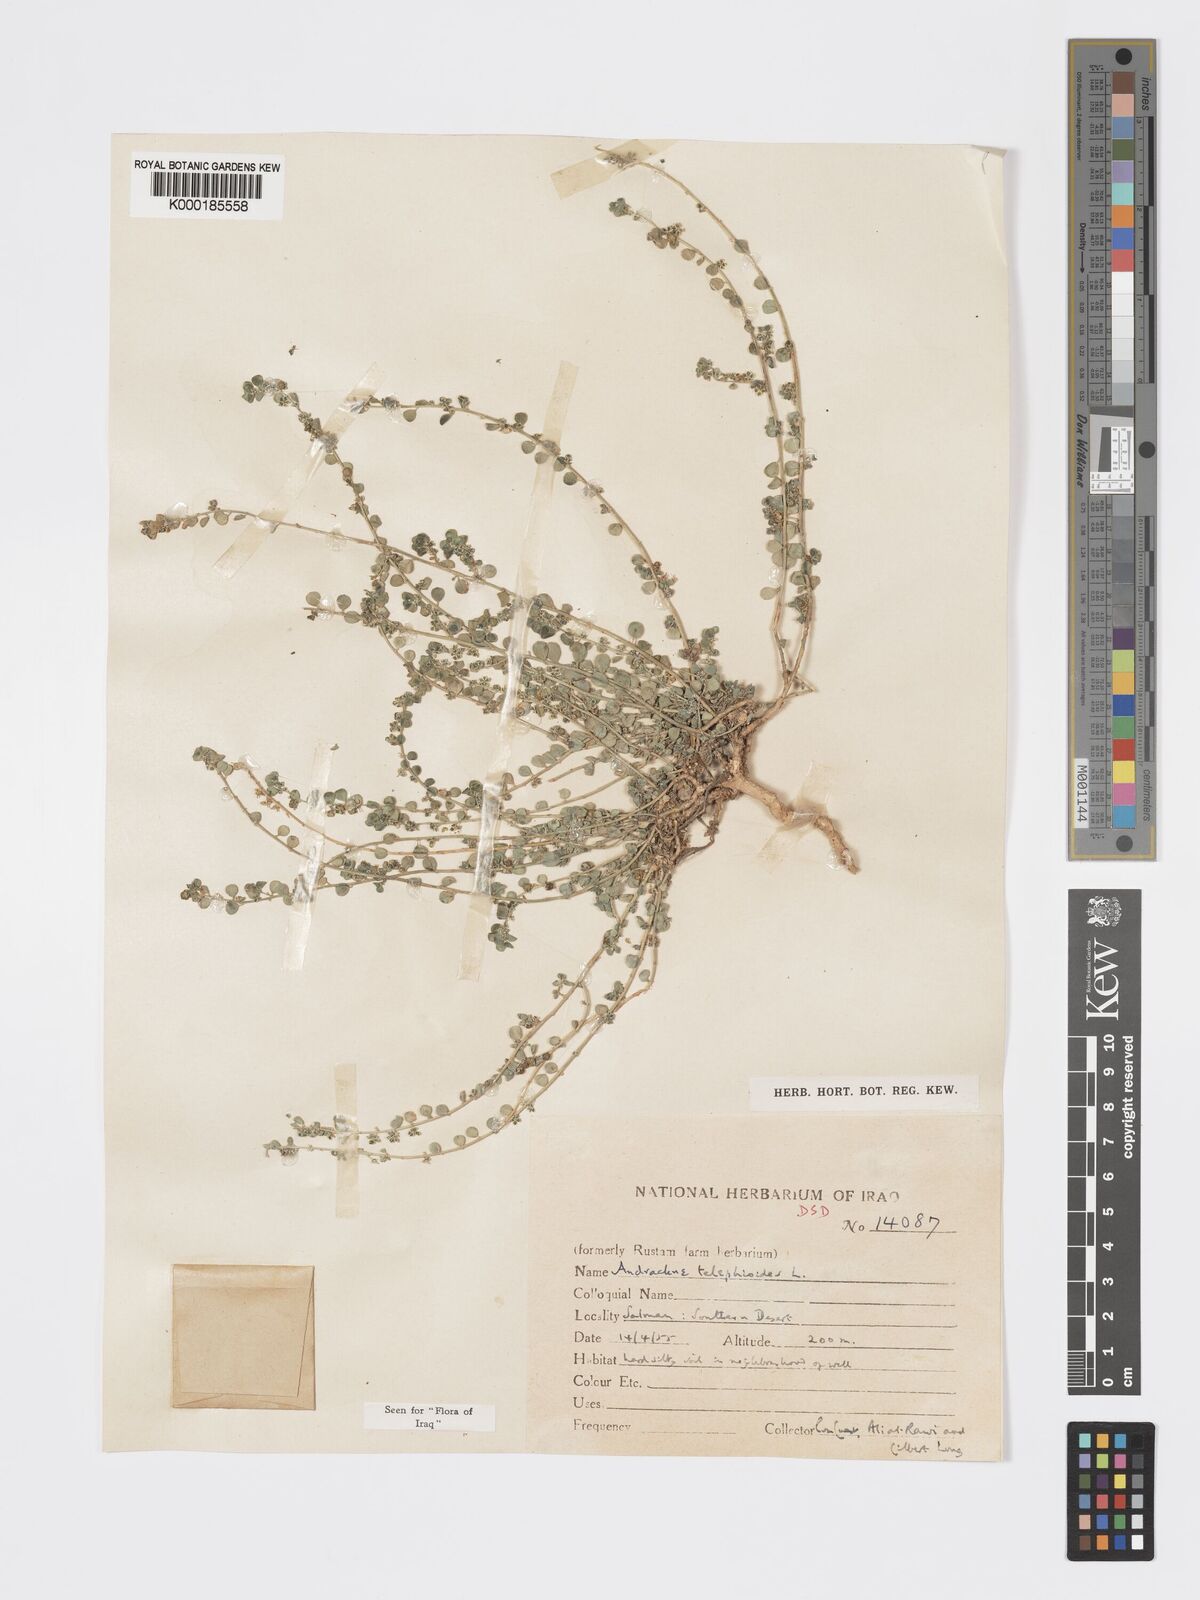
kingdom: Plantae
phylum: Tracheophyta
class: Magnoliopsida
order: Malpighiales
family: Phyllanthaceae
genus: Andrachne
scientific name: Andrachne telephioides
